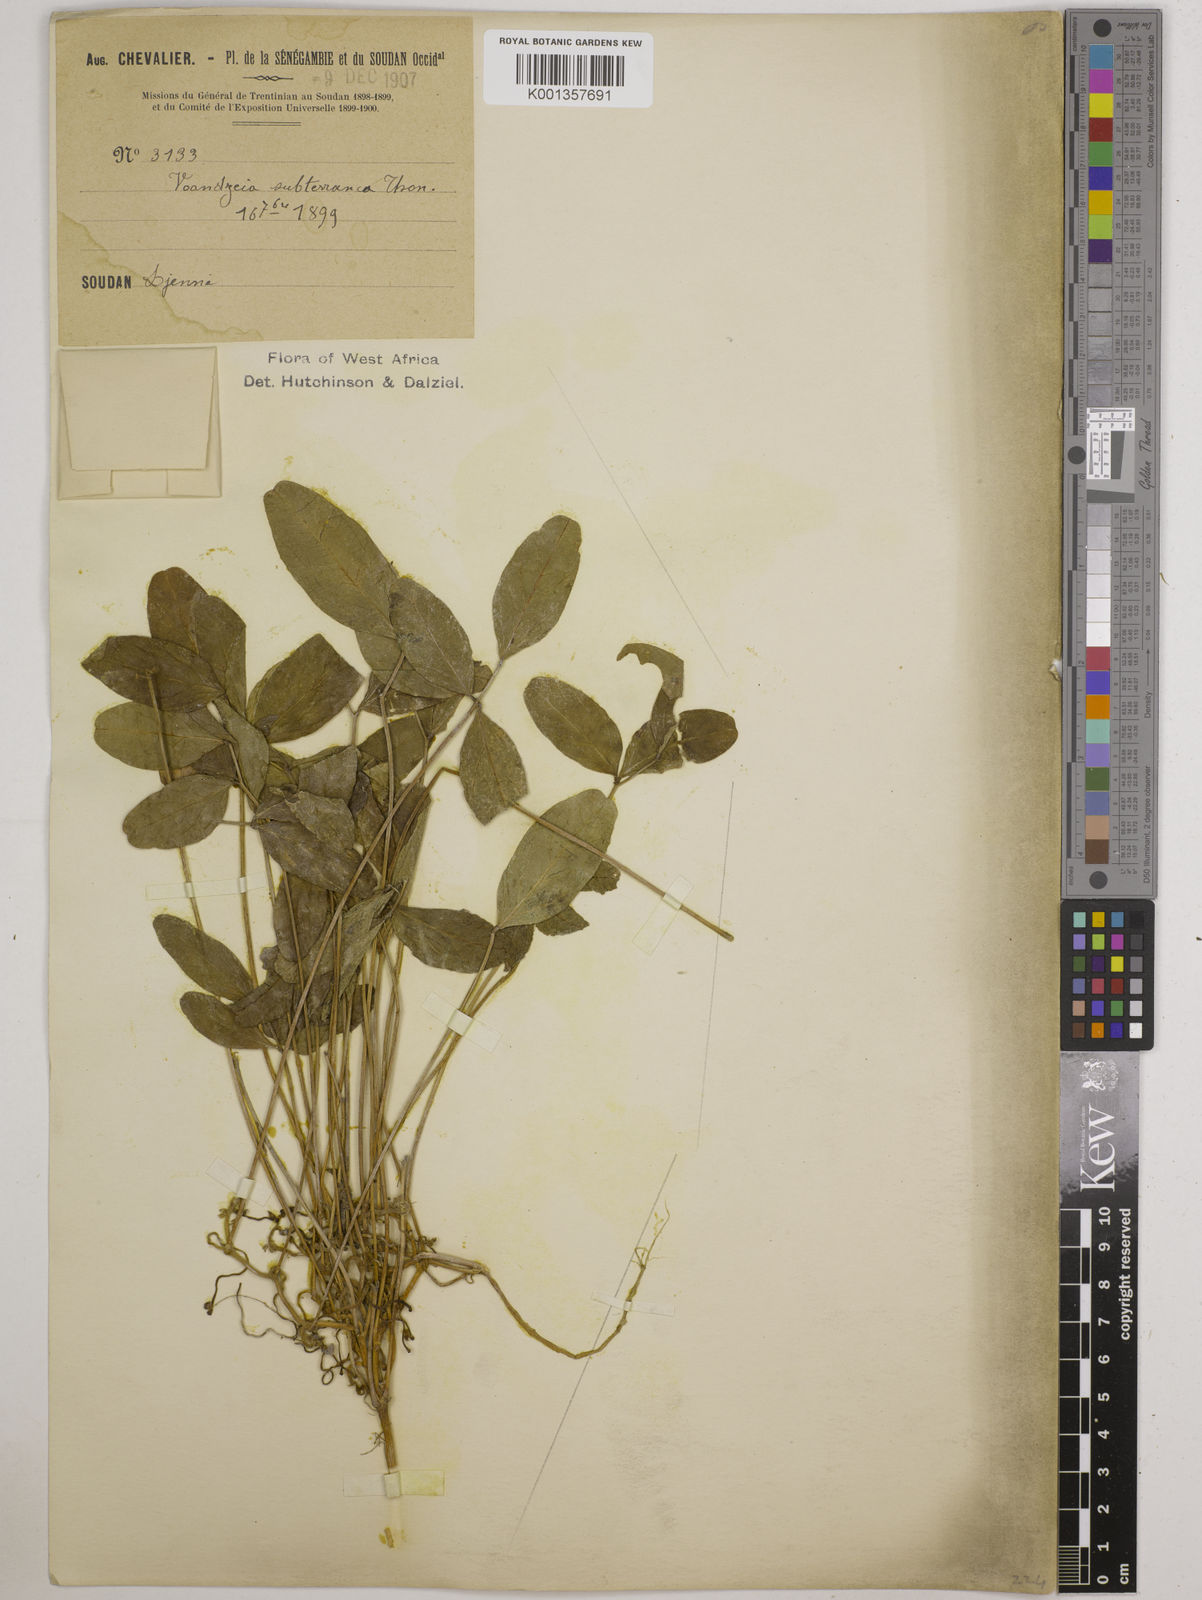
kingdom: Plantae
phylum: Tracheophyta
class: Magnoliopsida
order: Fabales
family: Fabaceae
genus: Vigna
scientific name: Vigna subterranea
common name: Bambara groundnut
